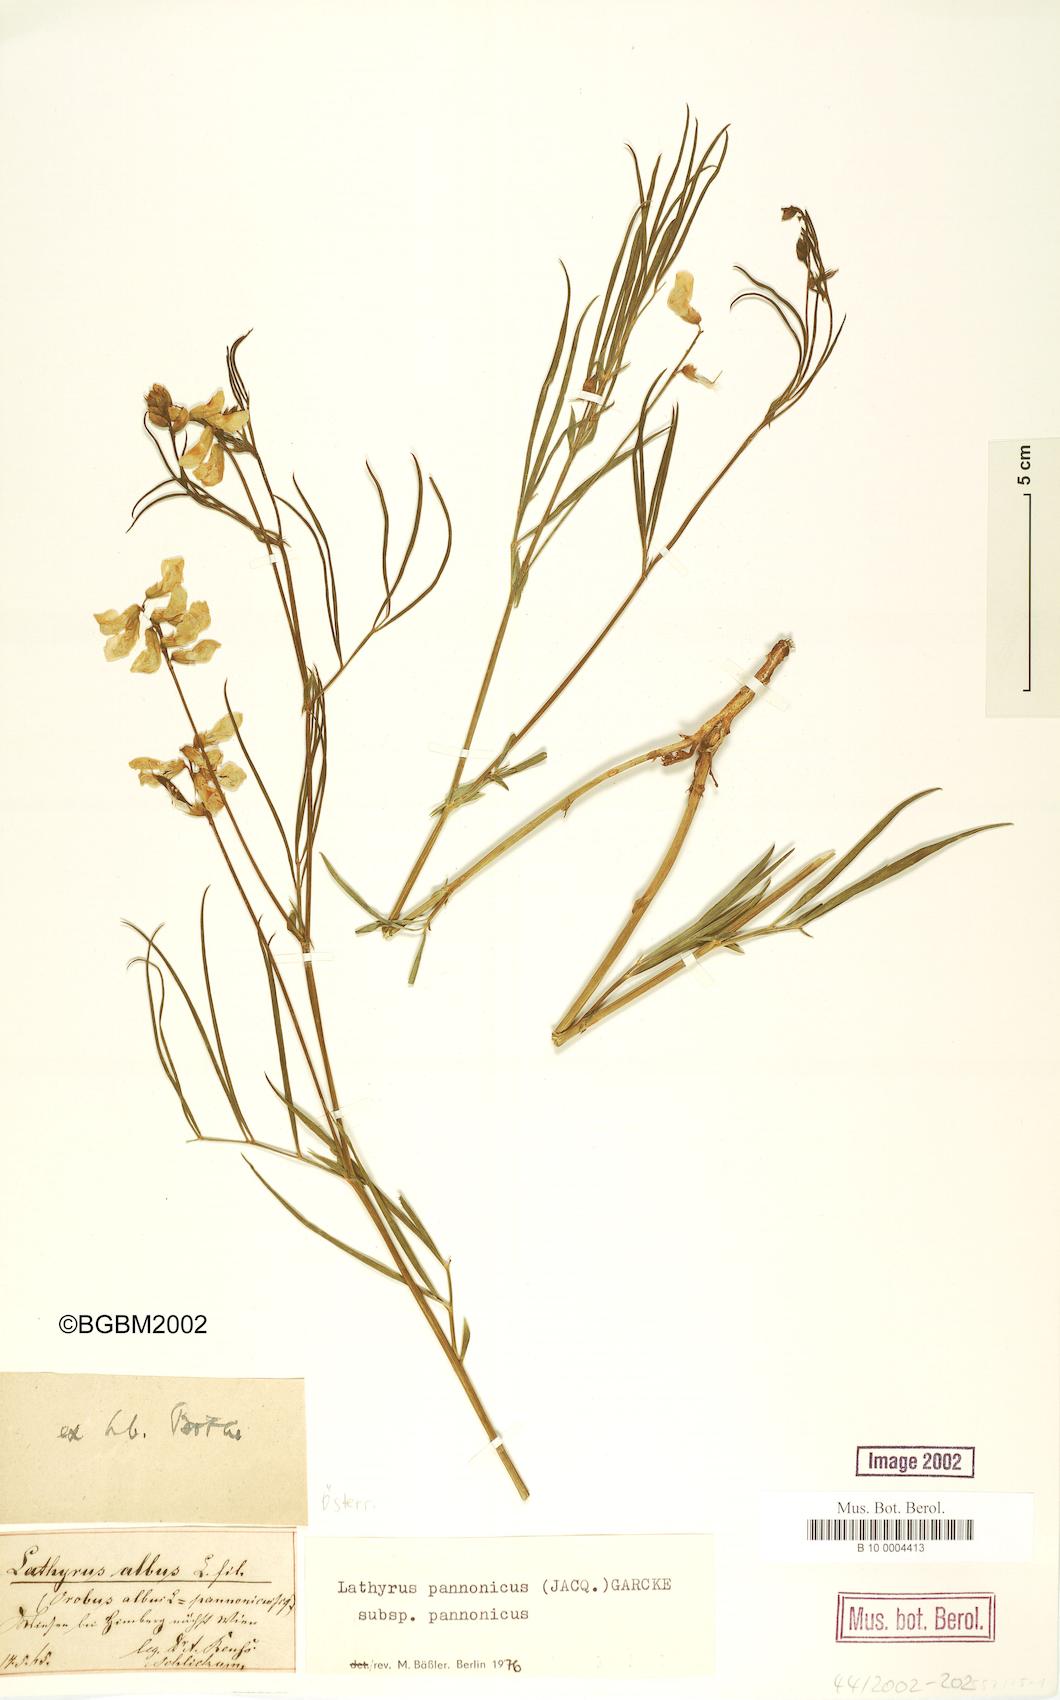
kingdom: Plantae
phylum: Tracheophyta
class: Magnoliopsida
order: Fabales
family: Fabaceae
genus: Lathyrus
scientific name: Lathyrus pannonicus
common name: Pea
